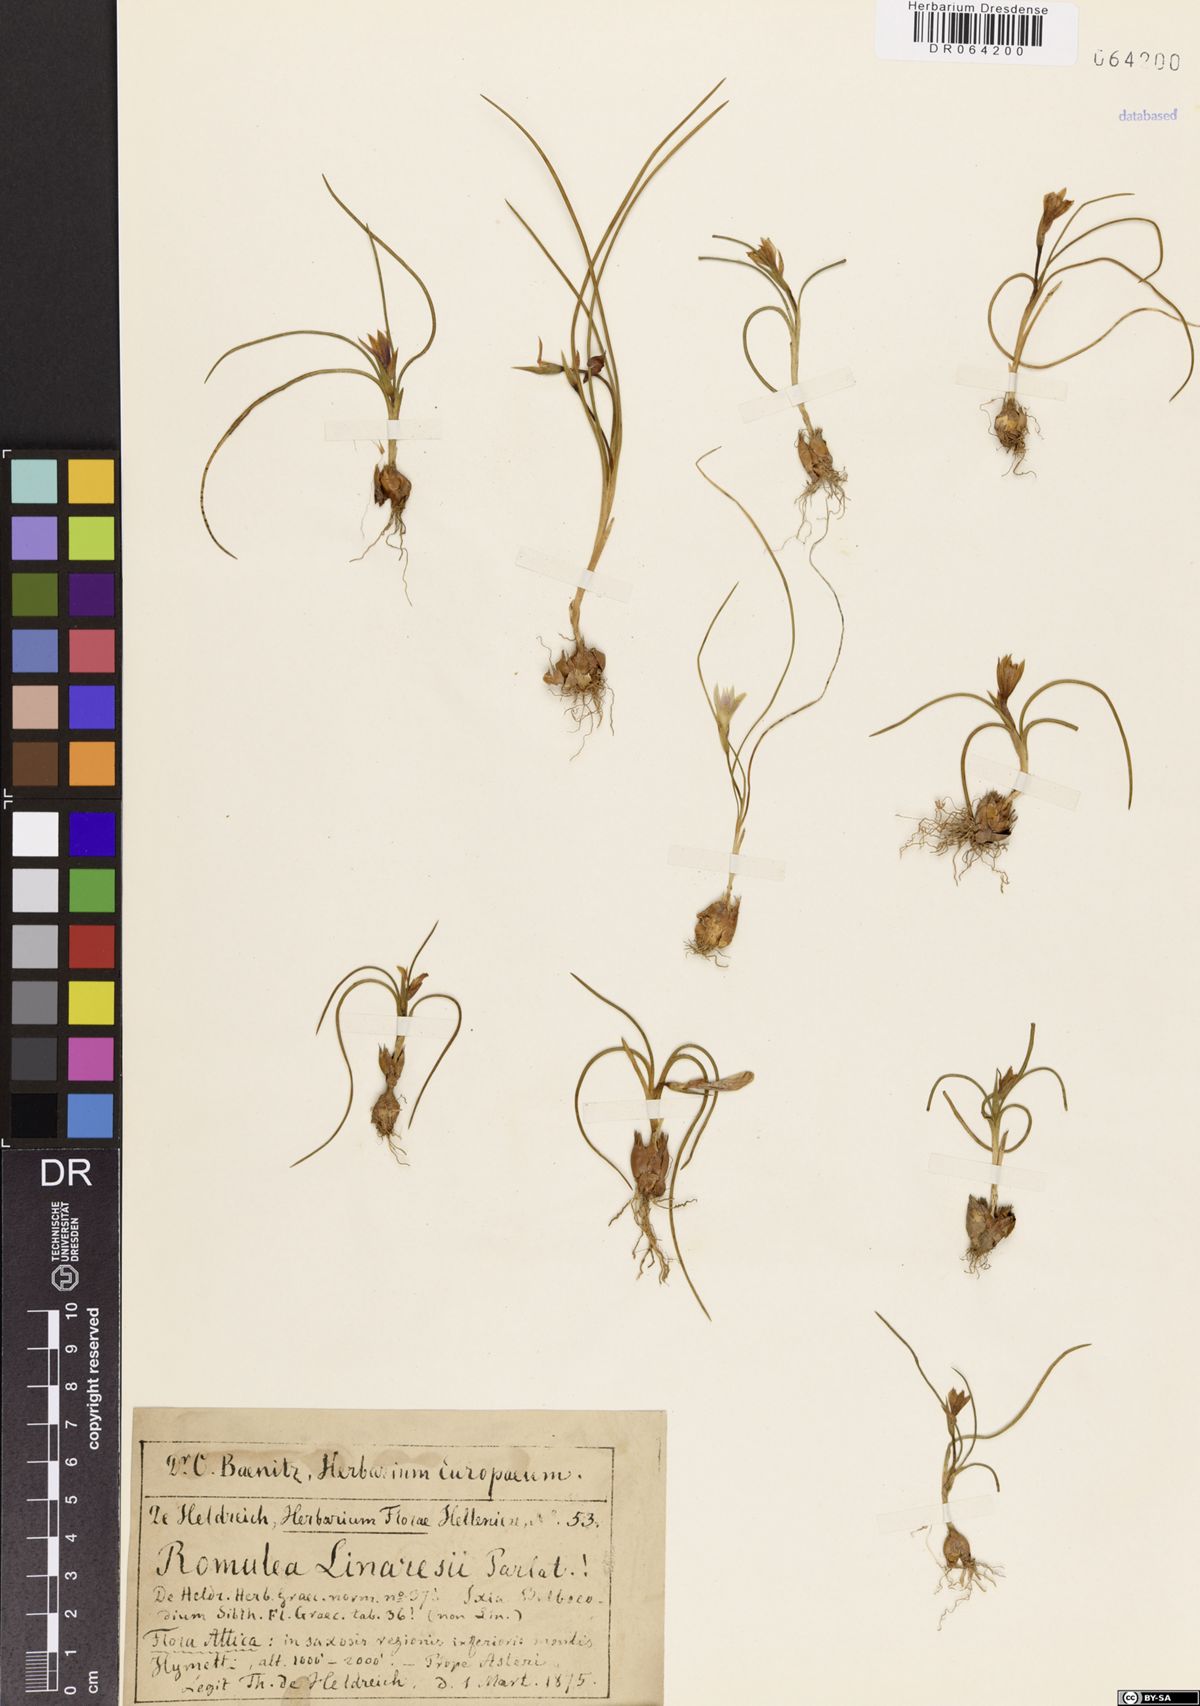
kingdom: Plantae
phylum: Tracheophyta
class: Liliopsida
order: Asparagales
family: Iridaceae
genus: Romulea
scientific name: Romulea linaresii
